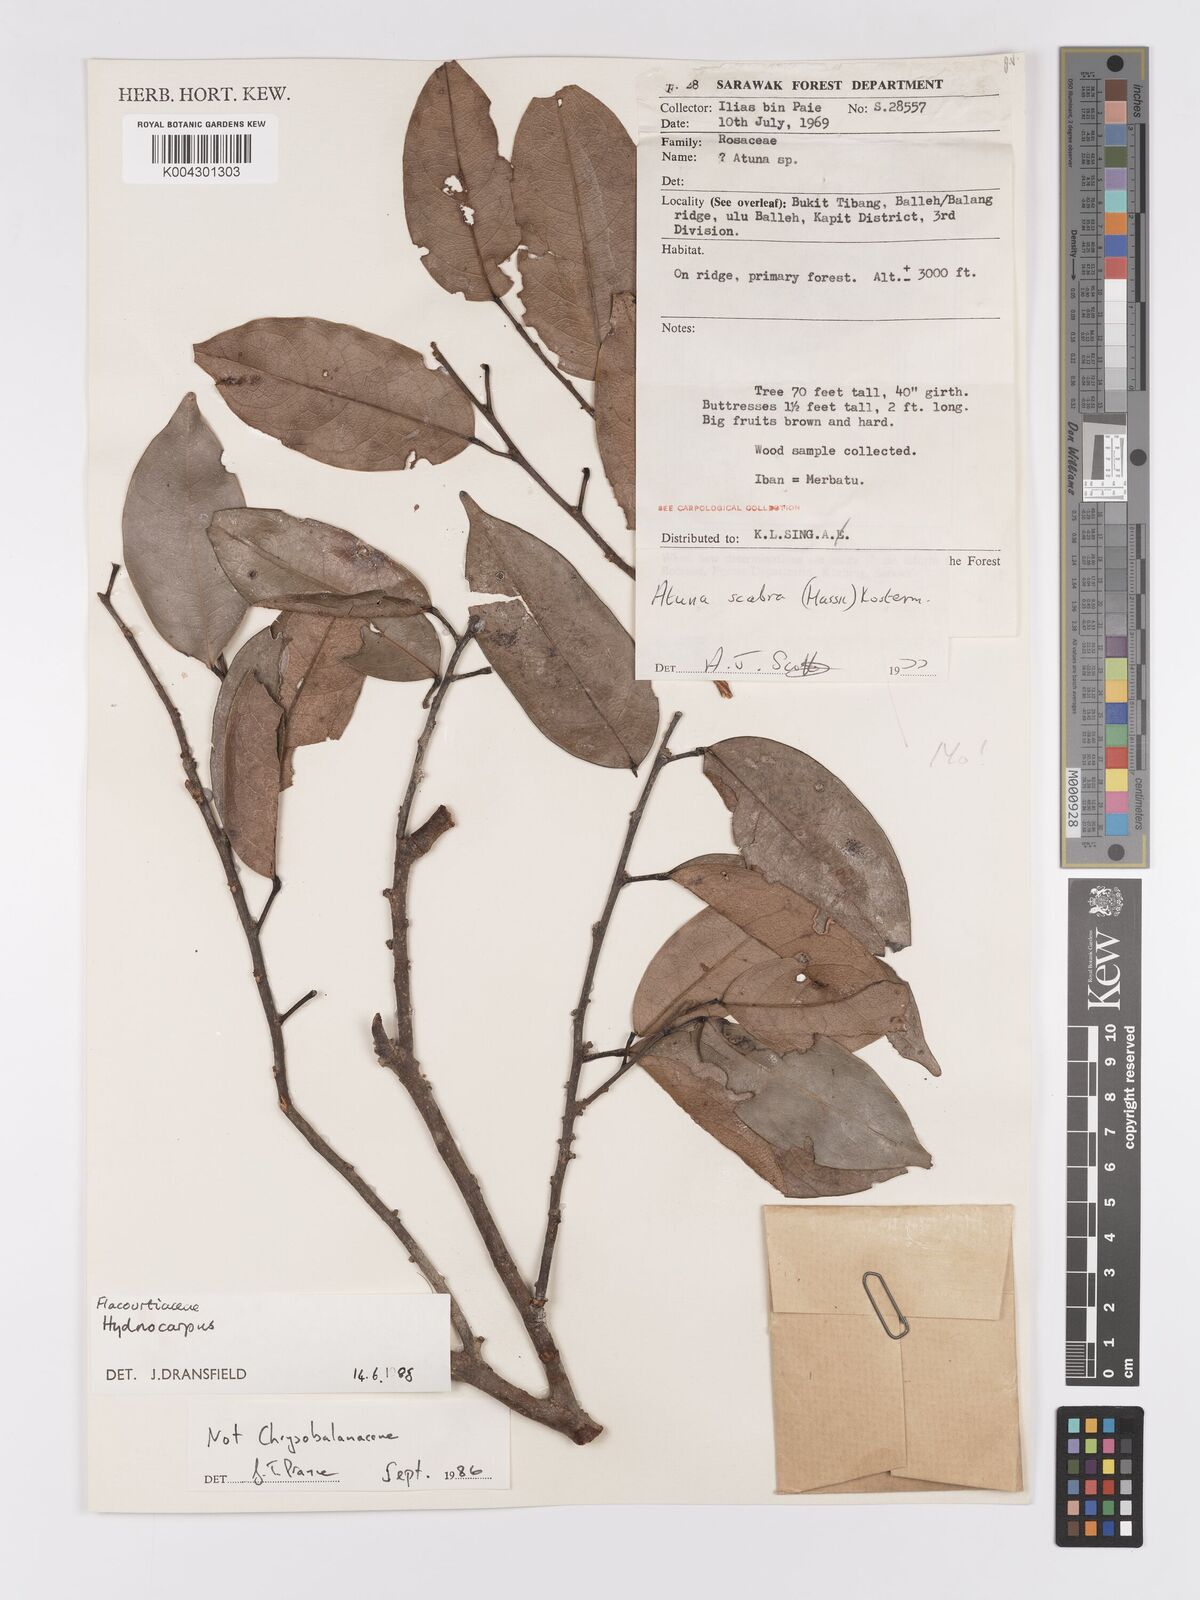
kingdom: Plantae
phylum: Tracheophyta
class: Magnoliopsida
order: Malpighiales
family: Achariaceae
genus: Hydnocarpus
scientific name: Hydnocarpus
